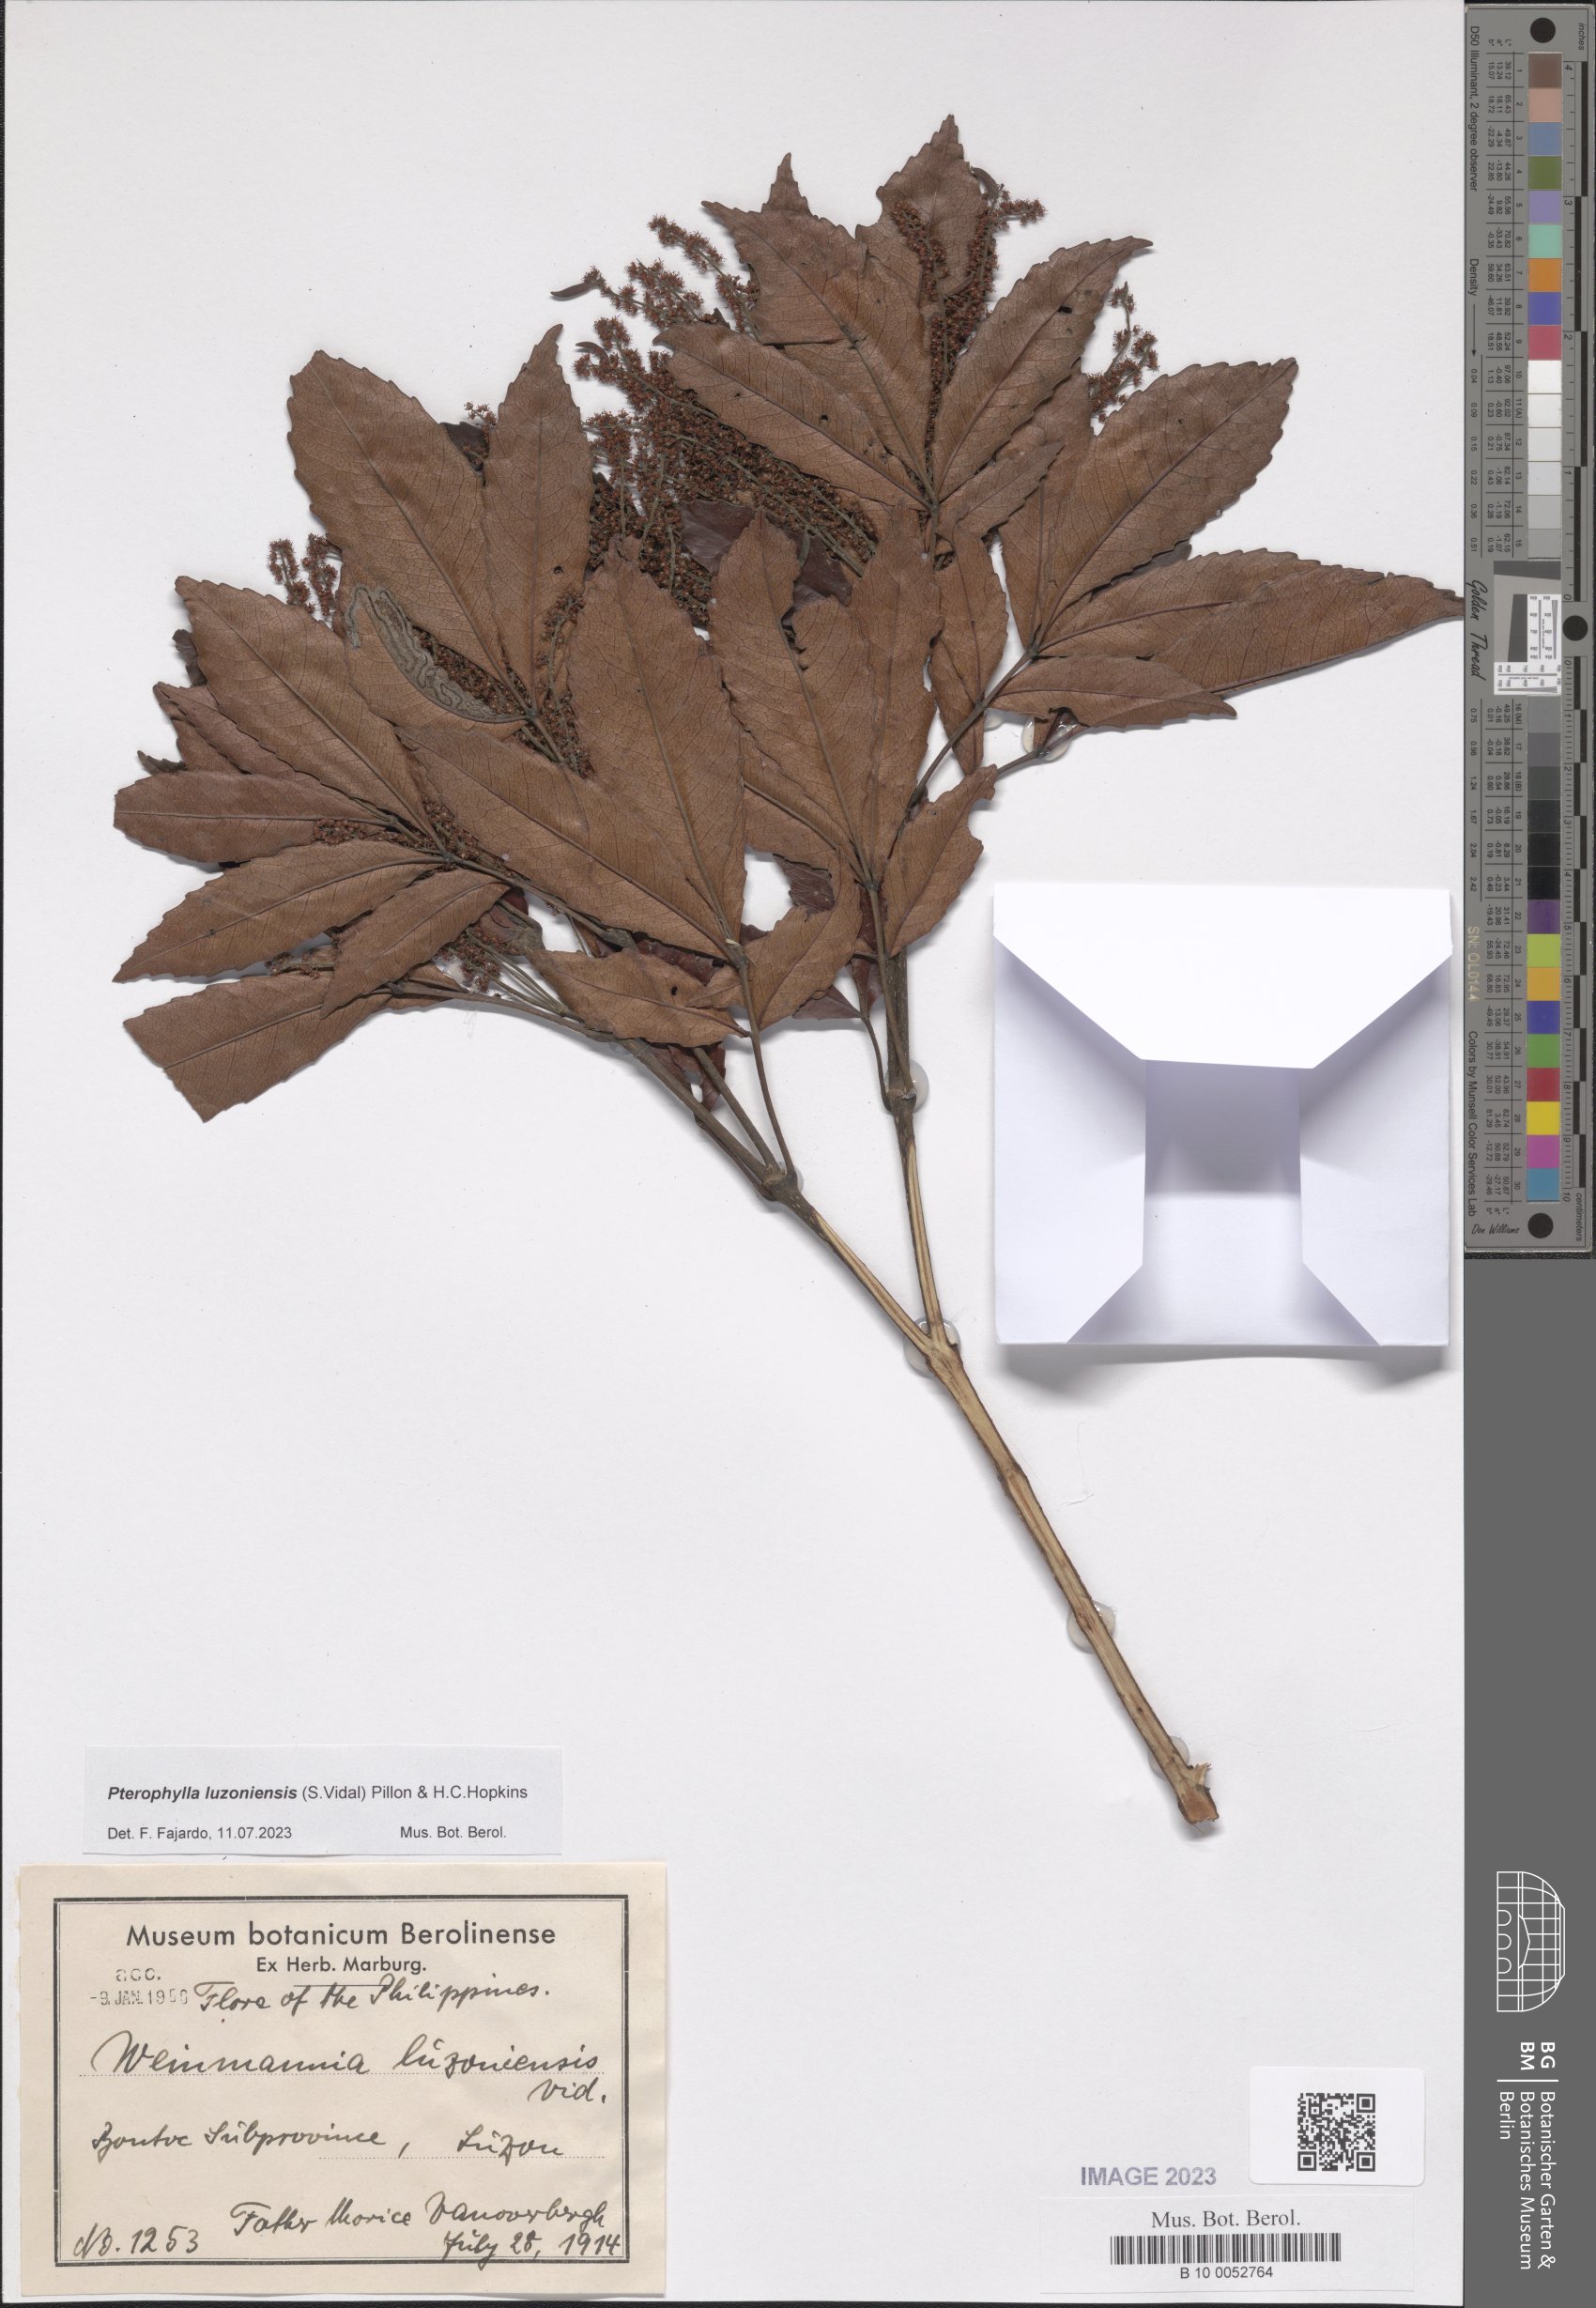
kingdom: Plantae
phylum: Tracheophyta
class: Magnoliopsida
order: Oxalidales
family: Cunoniaceae
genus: Pterophylla
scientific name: Pterophylla luzoniensis
